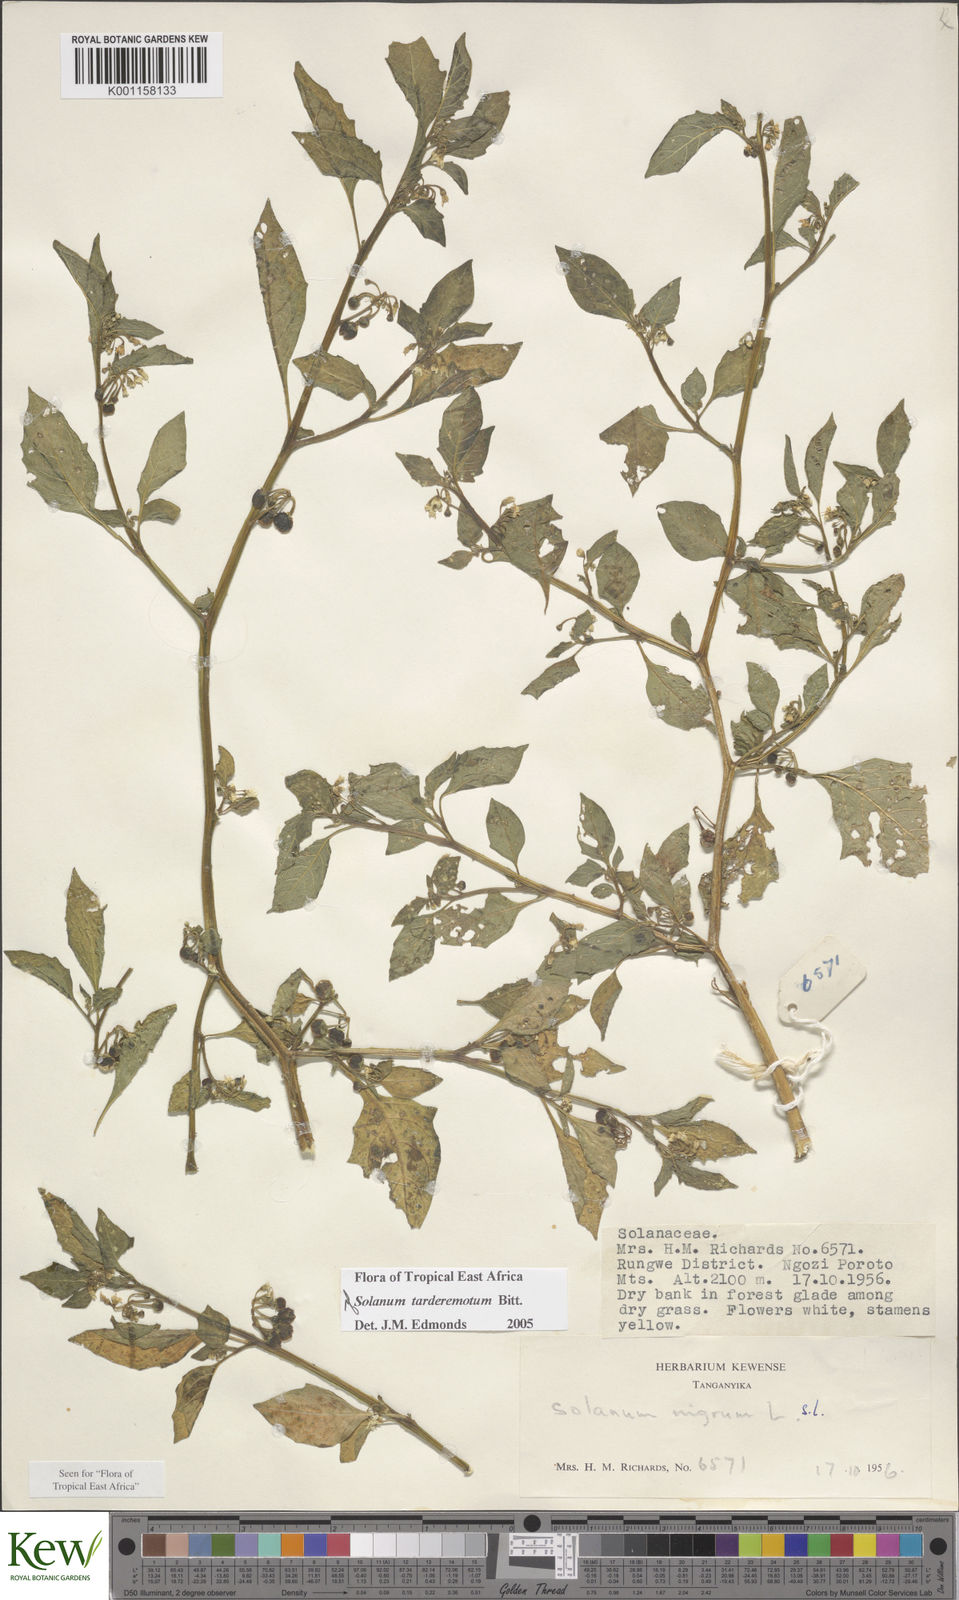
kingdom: Plantae
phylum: Tracheophyta
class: Magnoliopsida
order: Solanales
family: Solanaceae
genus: Solanum
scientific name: Solanum tarderemotum
